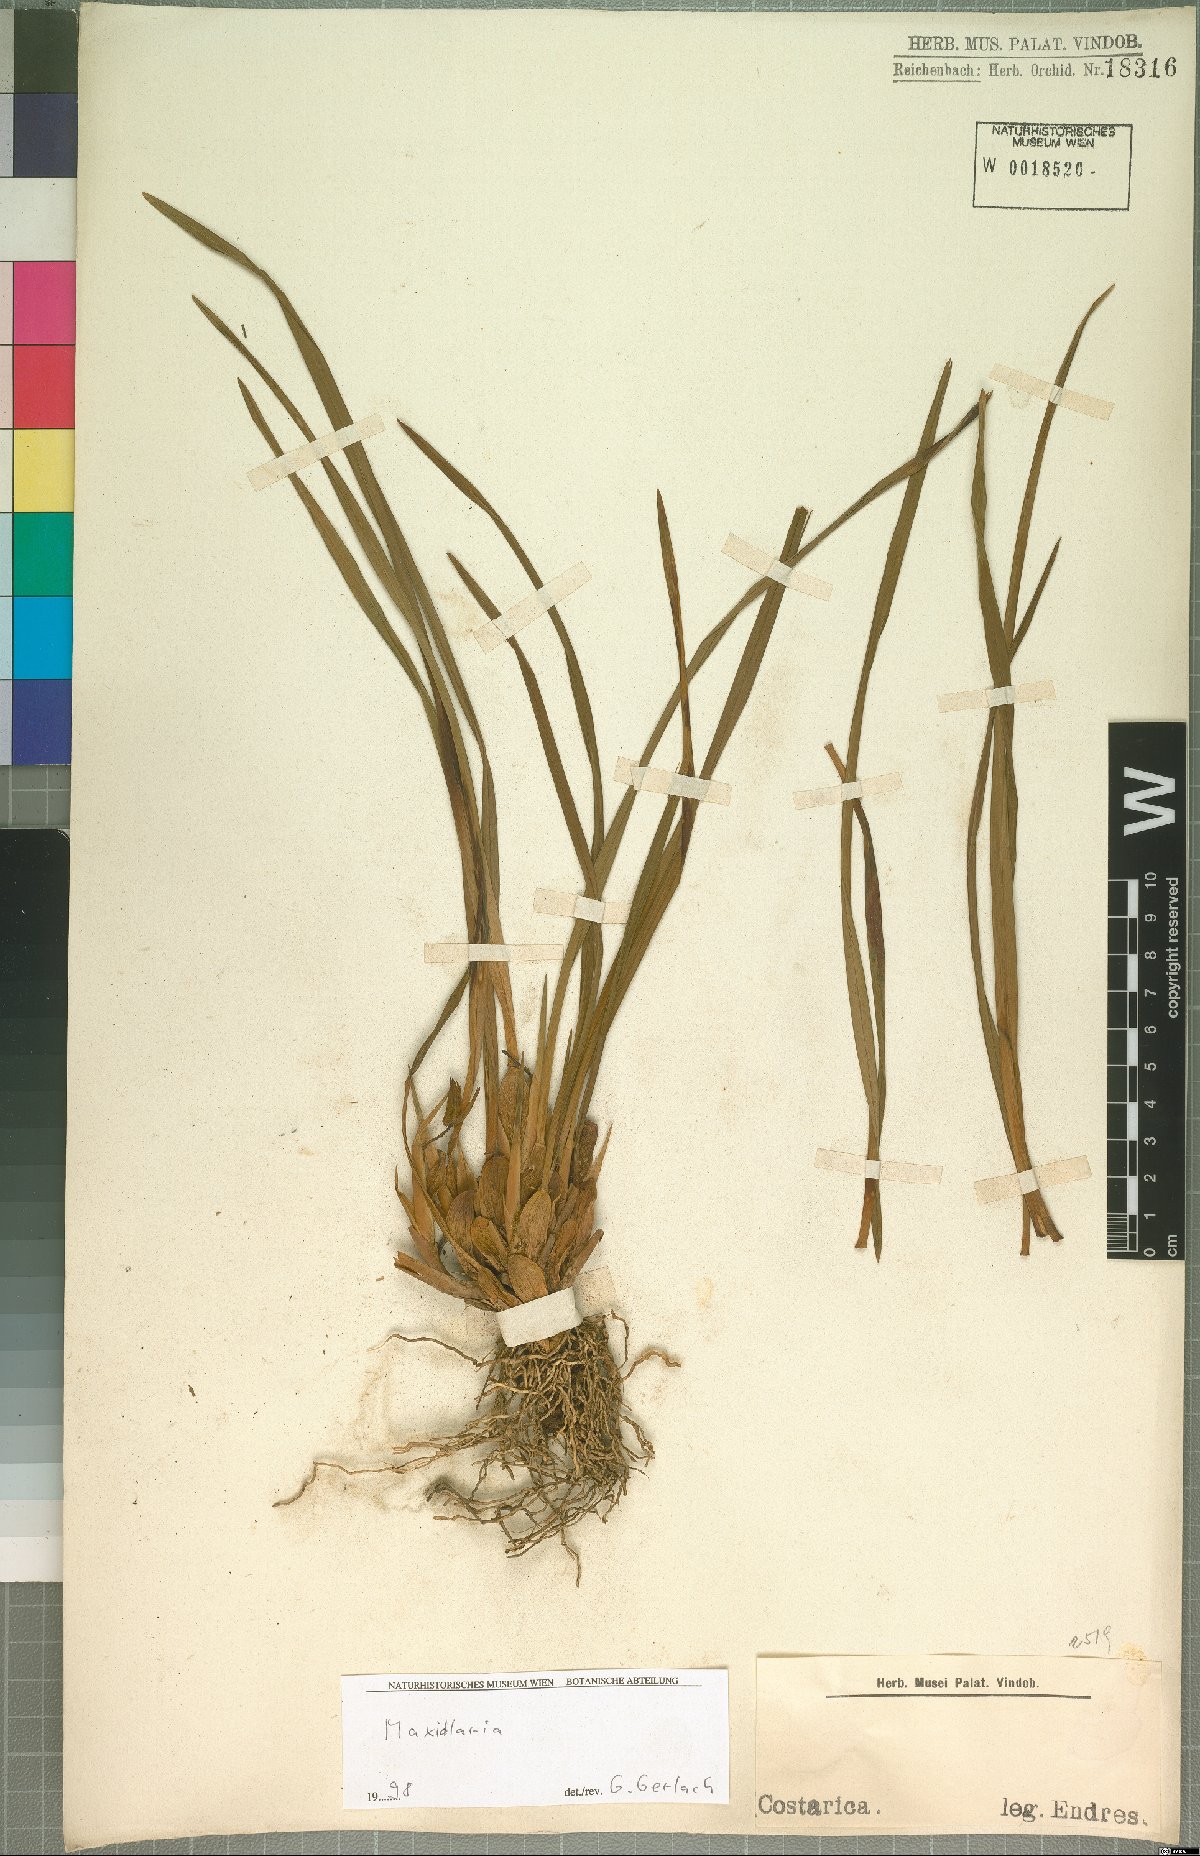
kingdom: Plantae
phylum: Tracheophyta
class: Liliopsida
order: Asparagales
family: Orchidaceae
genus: Maxillaria
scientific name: Maxillaria
